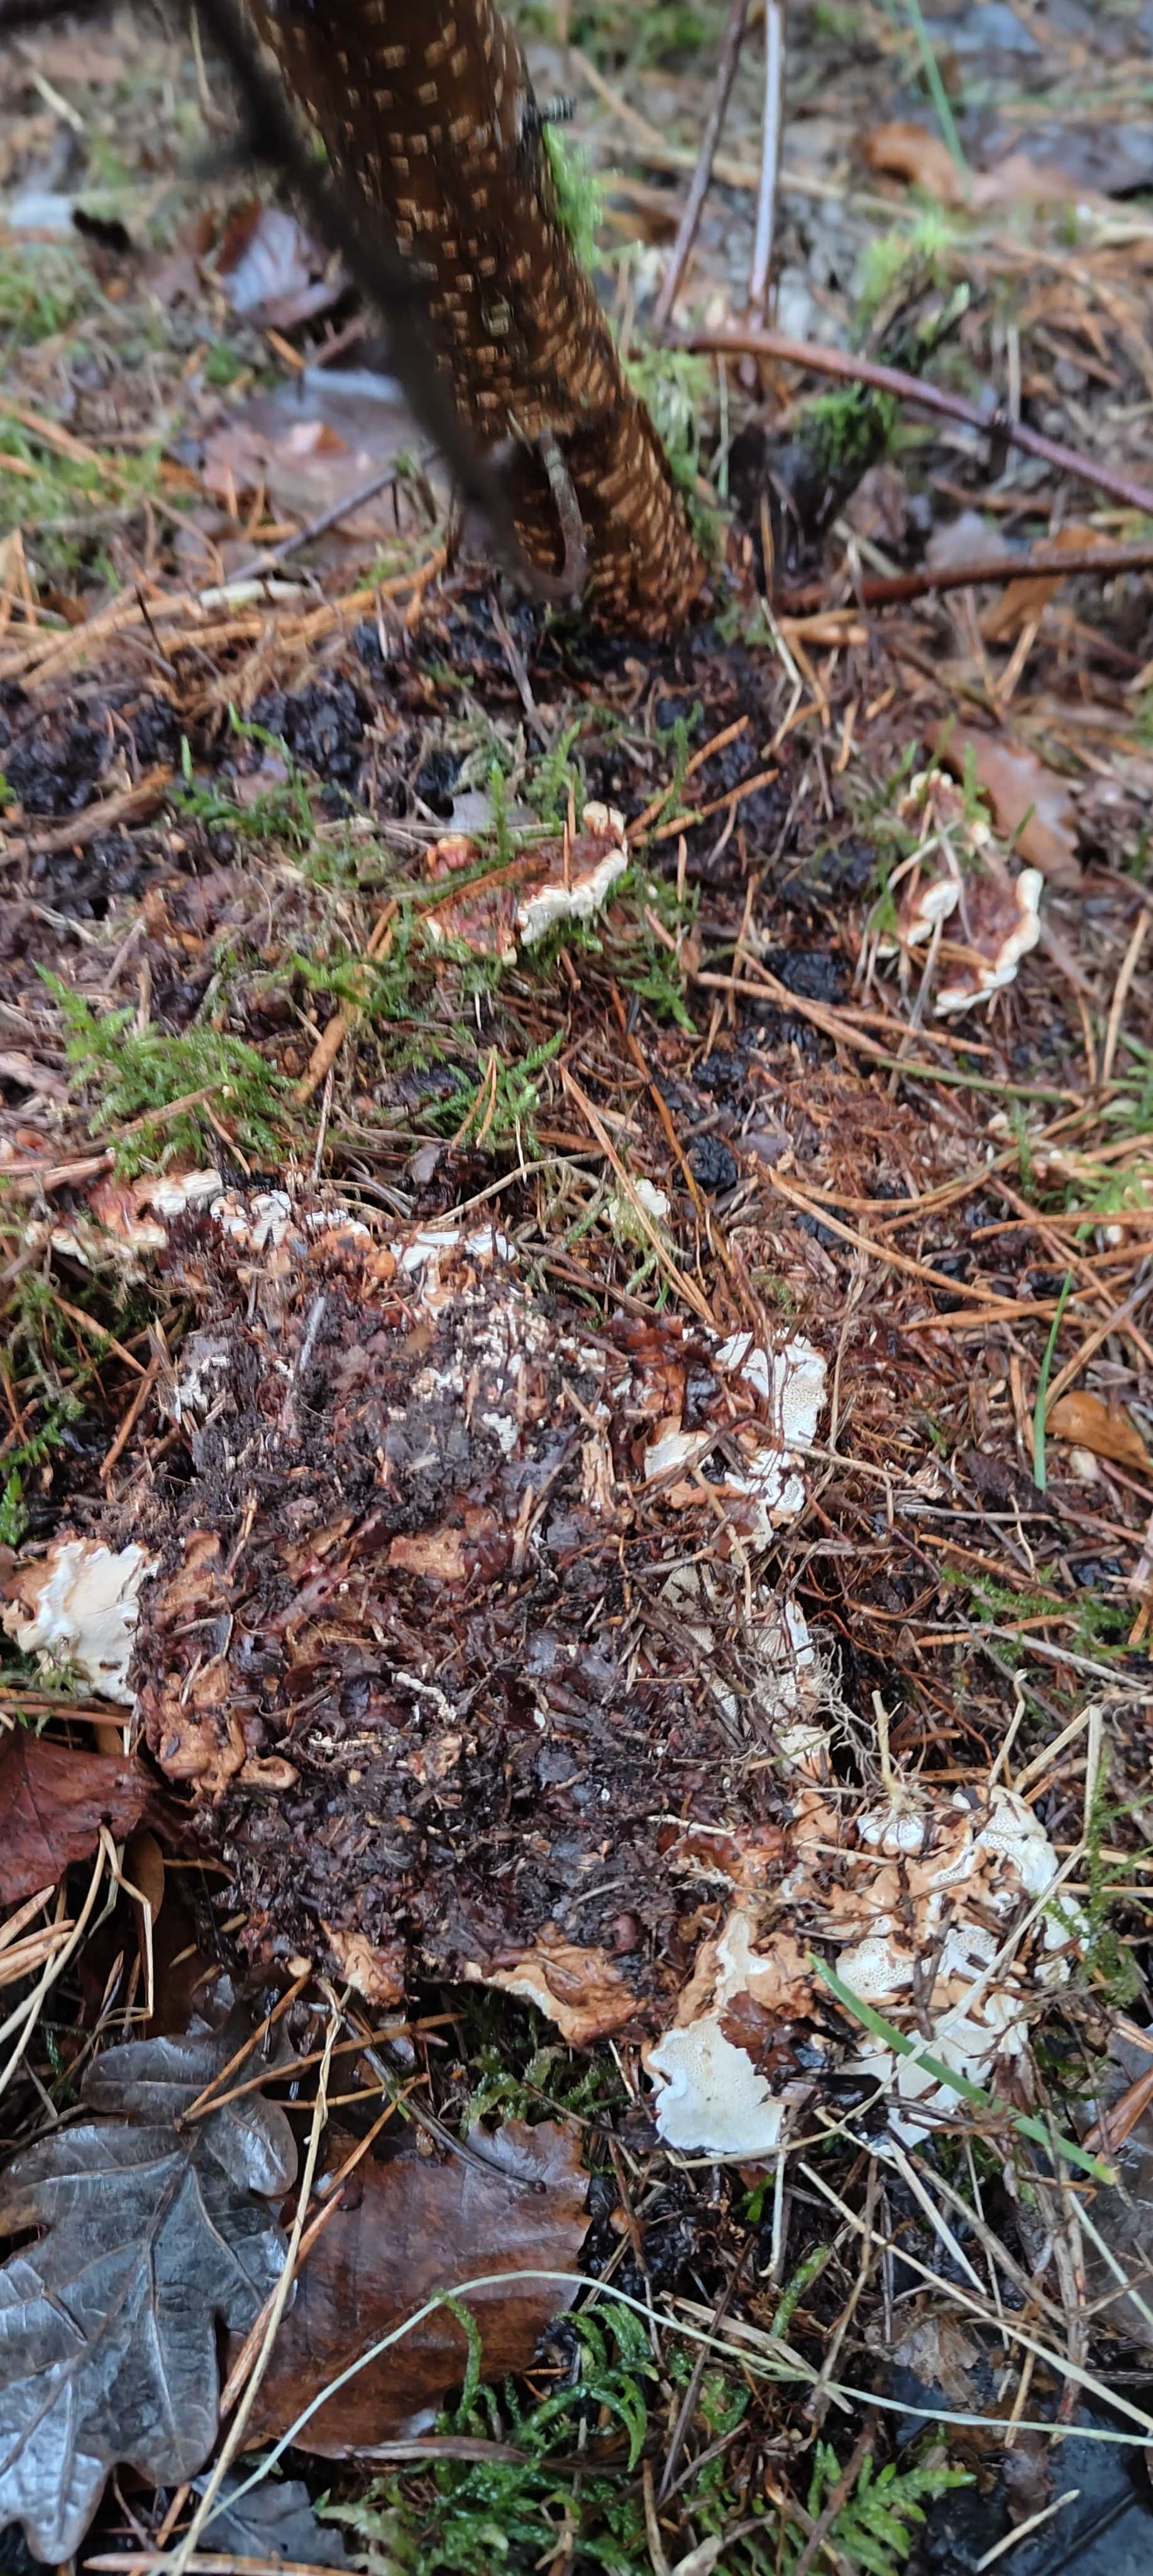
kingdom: Fungi
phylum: Basidiomycota
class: Agaricomycetes
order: Russulales
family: Bondarzewiaceae
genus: Heterobasidion
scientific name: Heterobasidion annosum
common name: almindelig rodfordærver
